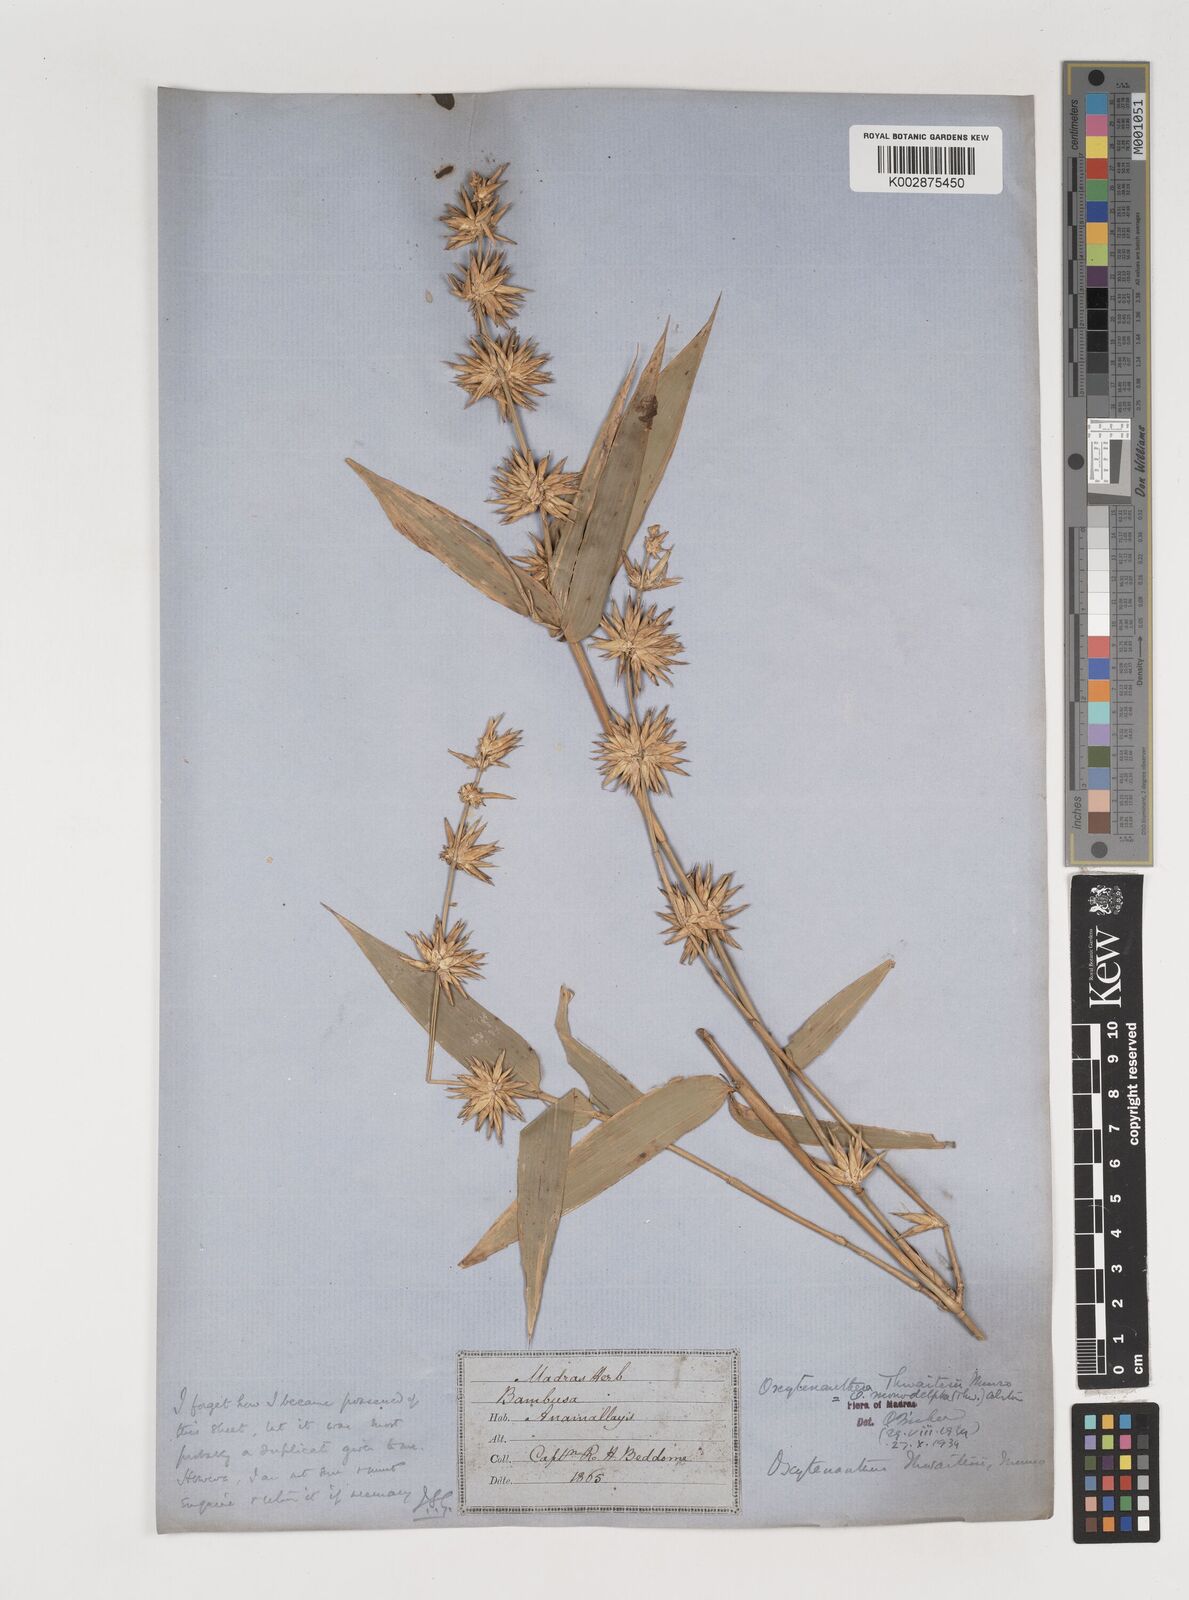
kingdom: Plantae
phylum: Tracheophyta
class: Liliopsida
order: Poales
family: Poaceae
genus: Pseudoxytenanthera
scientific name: Pseudoxytenanthera monadelpha
